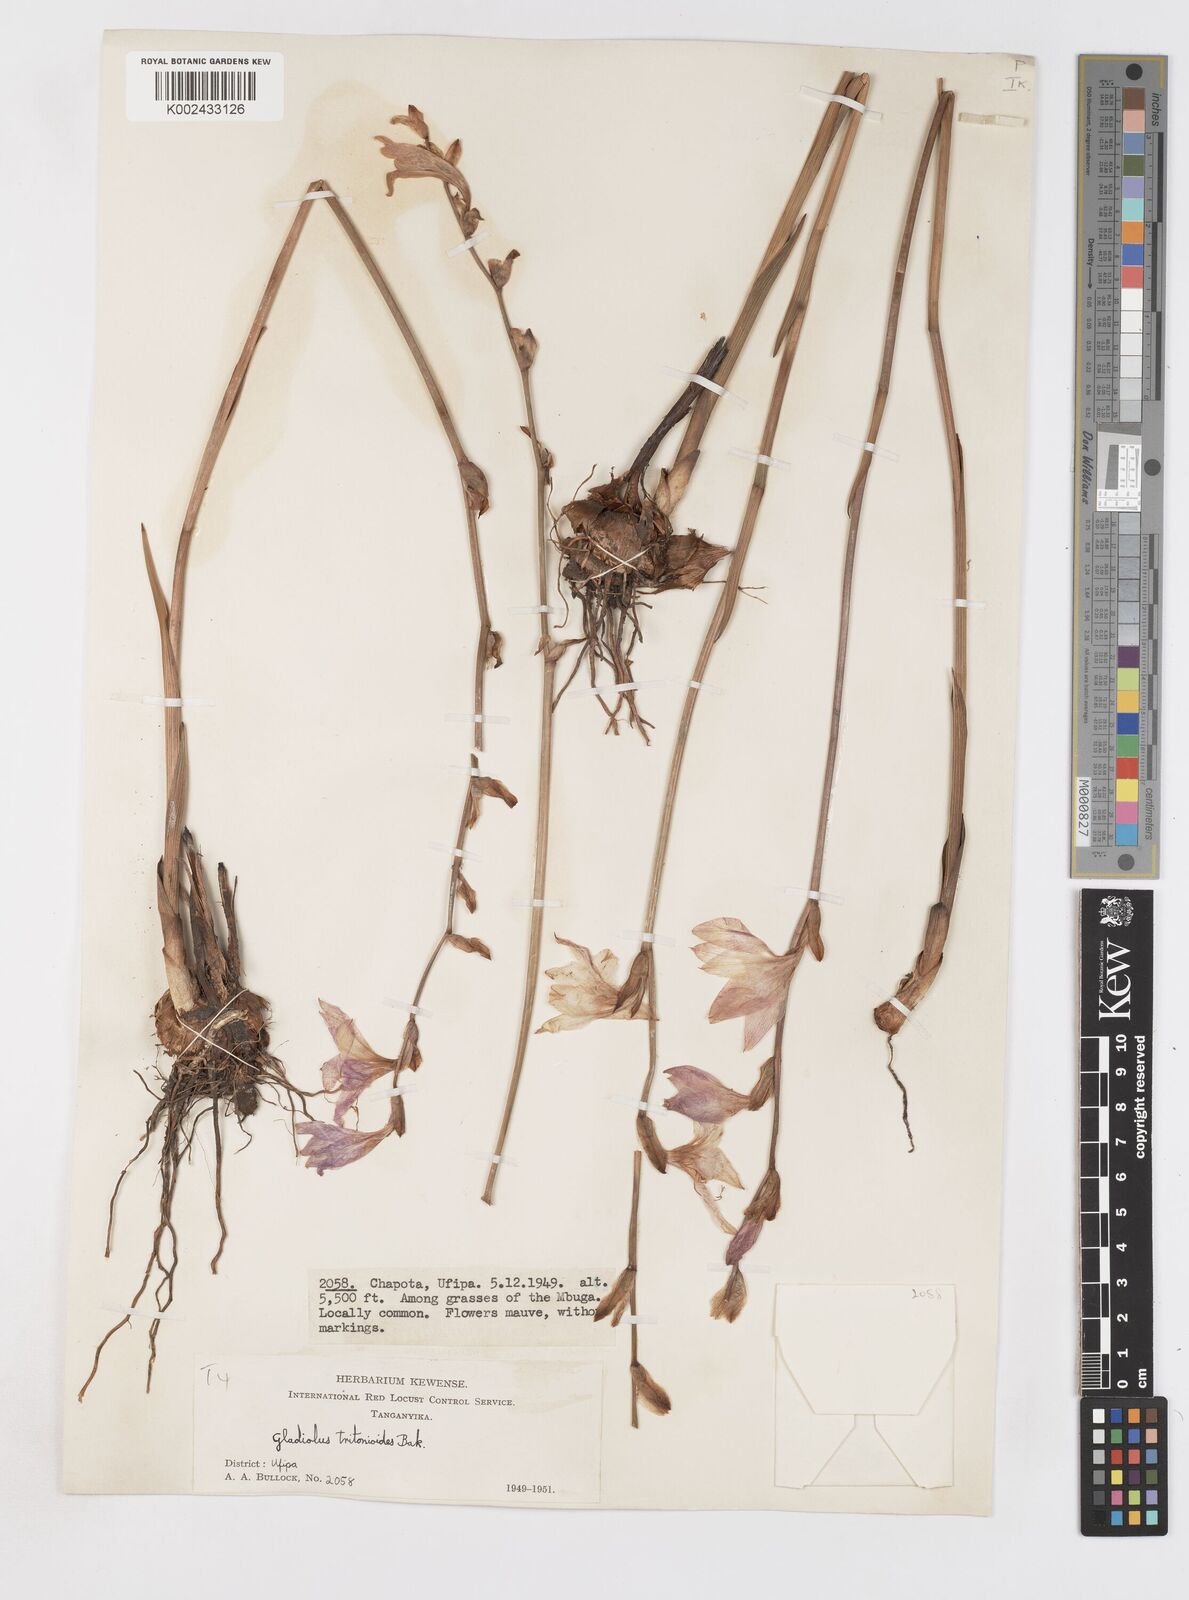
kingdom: Plantae
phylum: Tracheophyta
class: Liliopsida
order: Asparagales
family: Iridaceae
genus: Gladiolus
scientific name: Gladiolus laxiflorus
